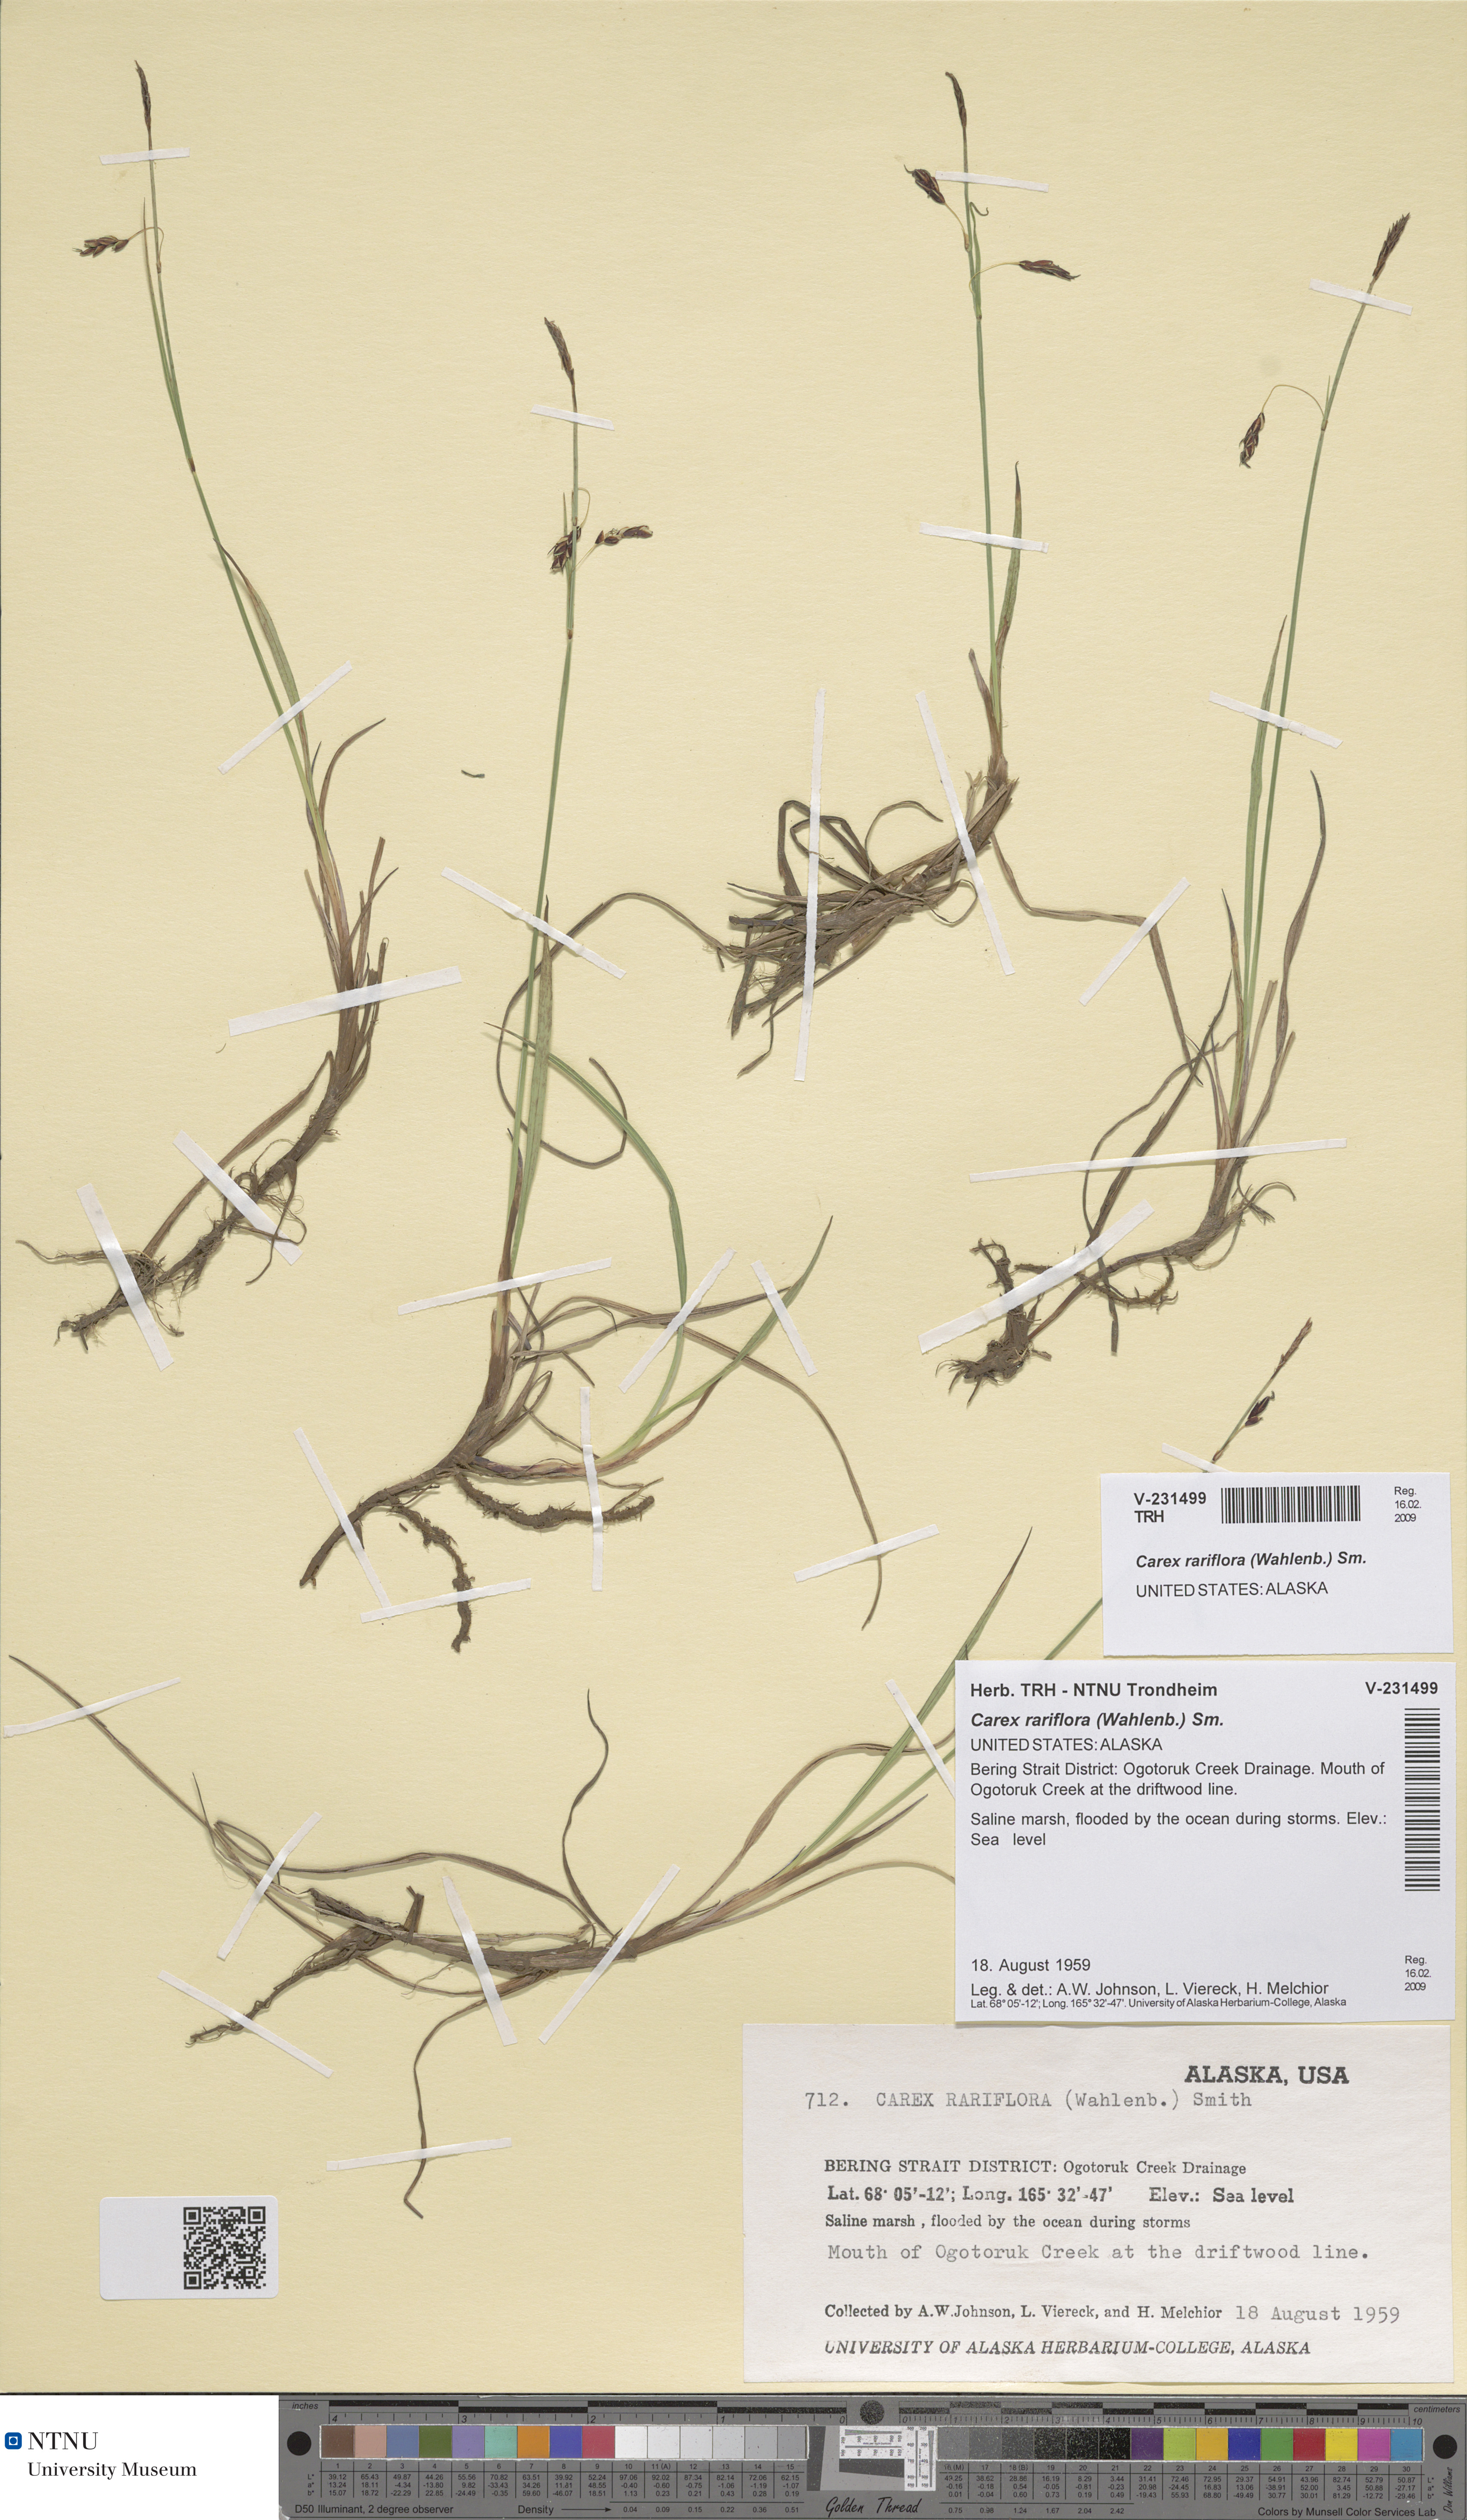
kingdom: Plantae
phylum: Tracheophyta
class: Liliopsida
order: Poales
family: Cyperaceae
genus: Carex
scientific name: Carex rariflora
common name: Loose-flowered alpine sedge
